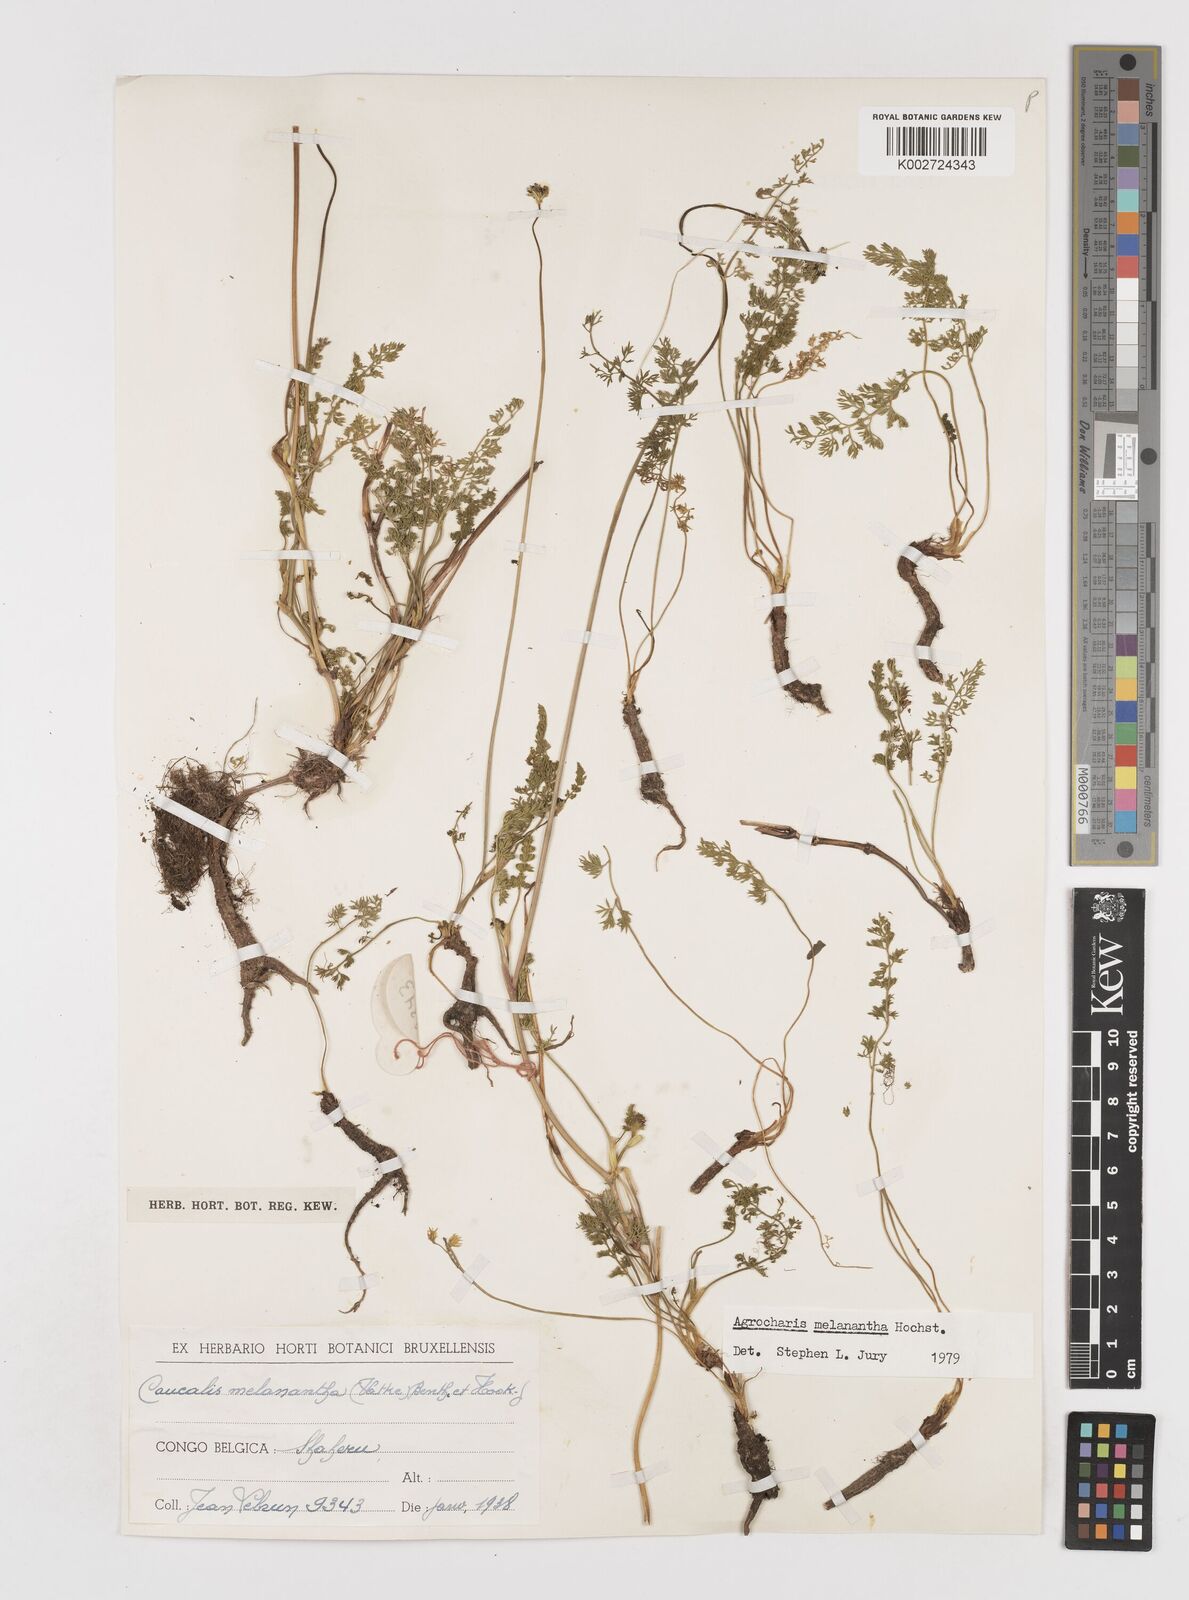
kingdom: Plantae
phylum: Tracheophyta
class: Magnoliopsida
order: Apiales
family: Apiaceae
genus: Daucus
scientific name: Daucus melananthus
